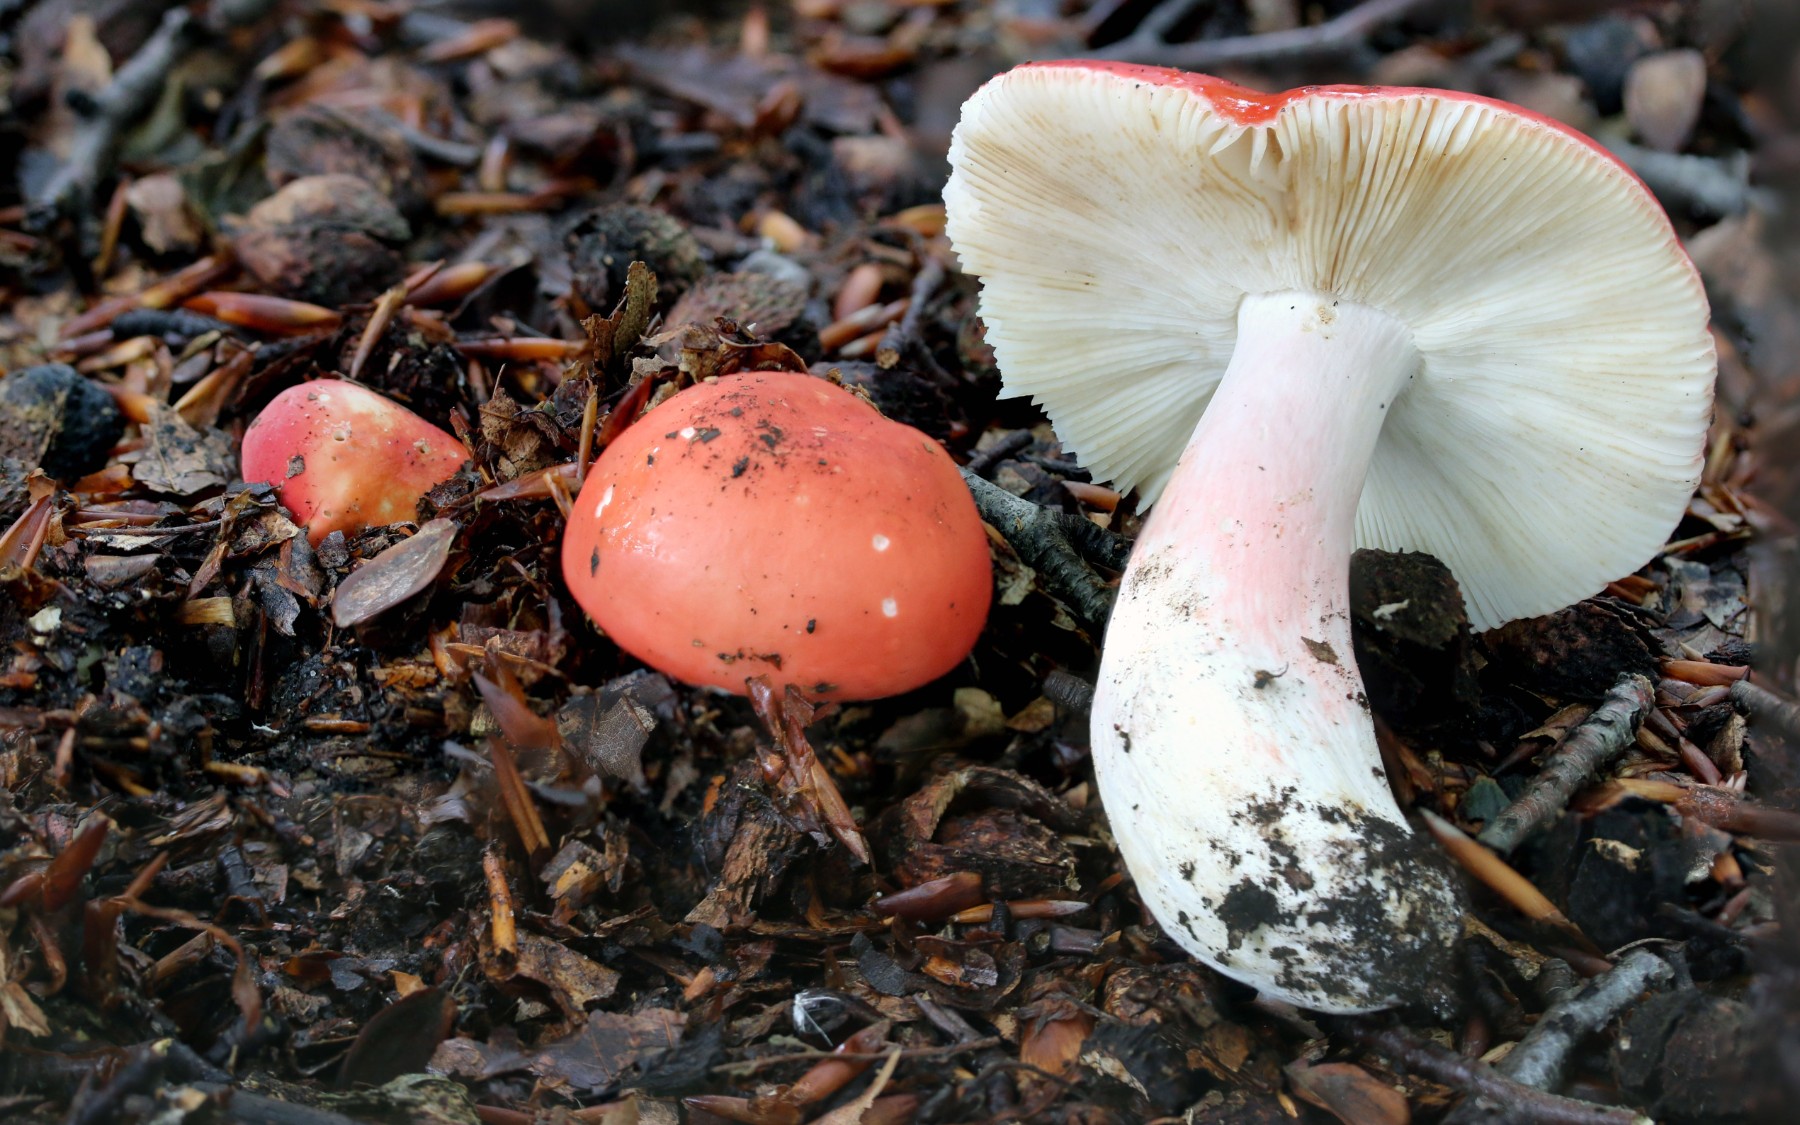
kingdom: Fungi
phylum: Basidiomycota
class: Agaricomycetes
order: Russulales
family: Russulaceae
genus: Russula
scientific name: Russula rosea
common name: fastkødet skørhat
